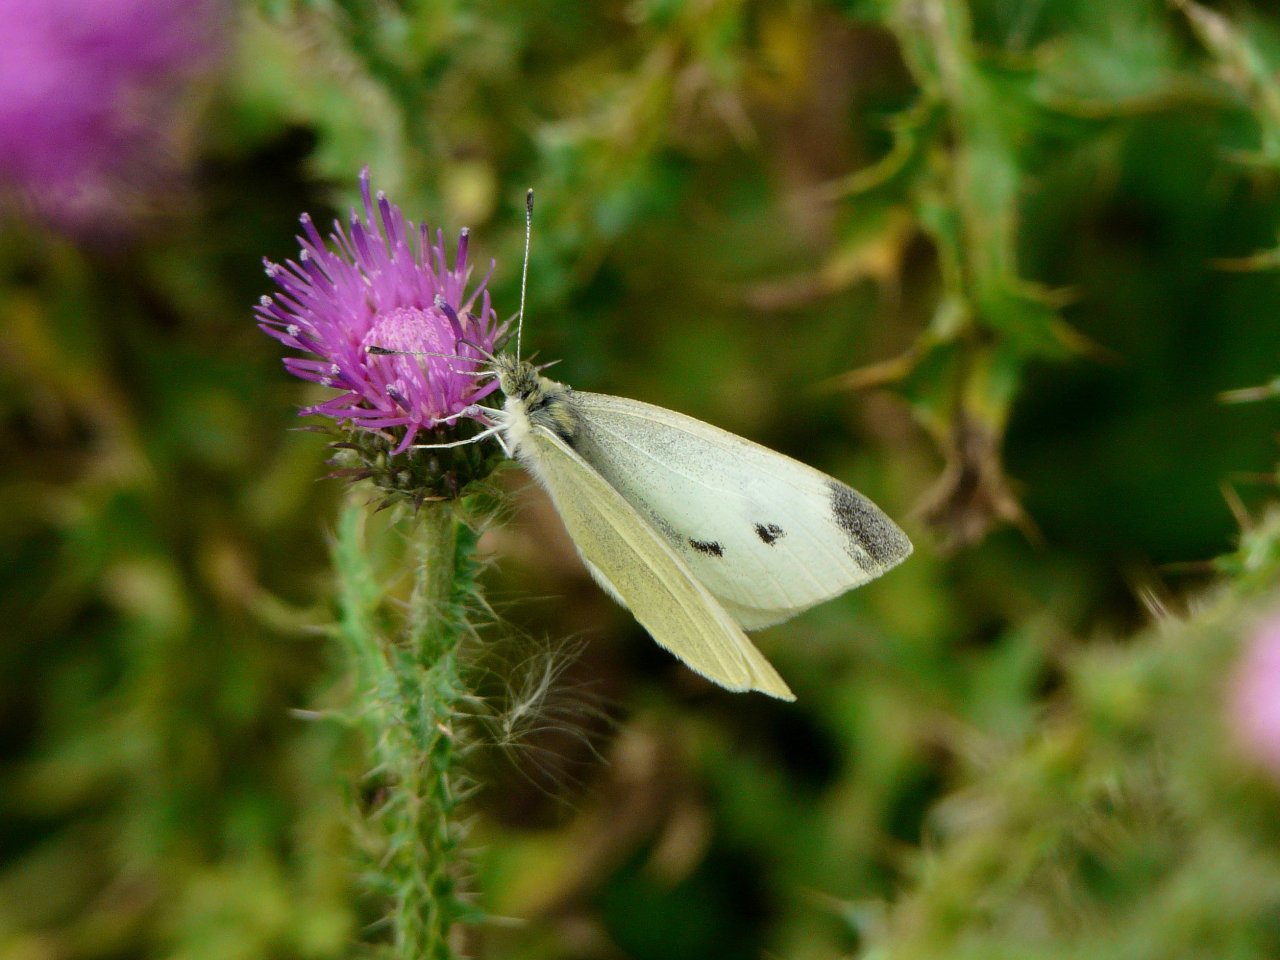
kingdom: Animalia
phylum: Arthropoda
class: Insecta
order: Lepidoptera
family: Pieridae
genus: Pieris
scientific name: Pieris rapae
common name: Cabbage White
